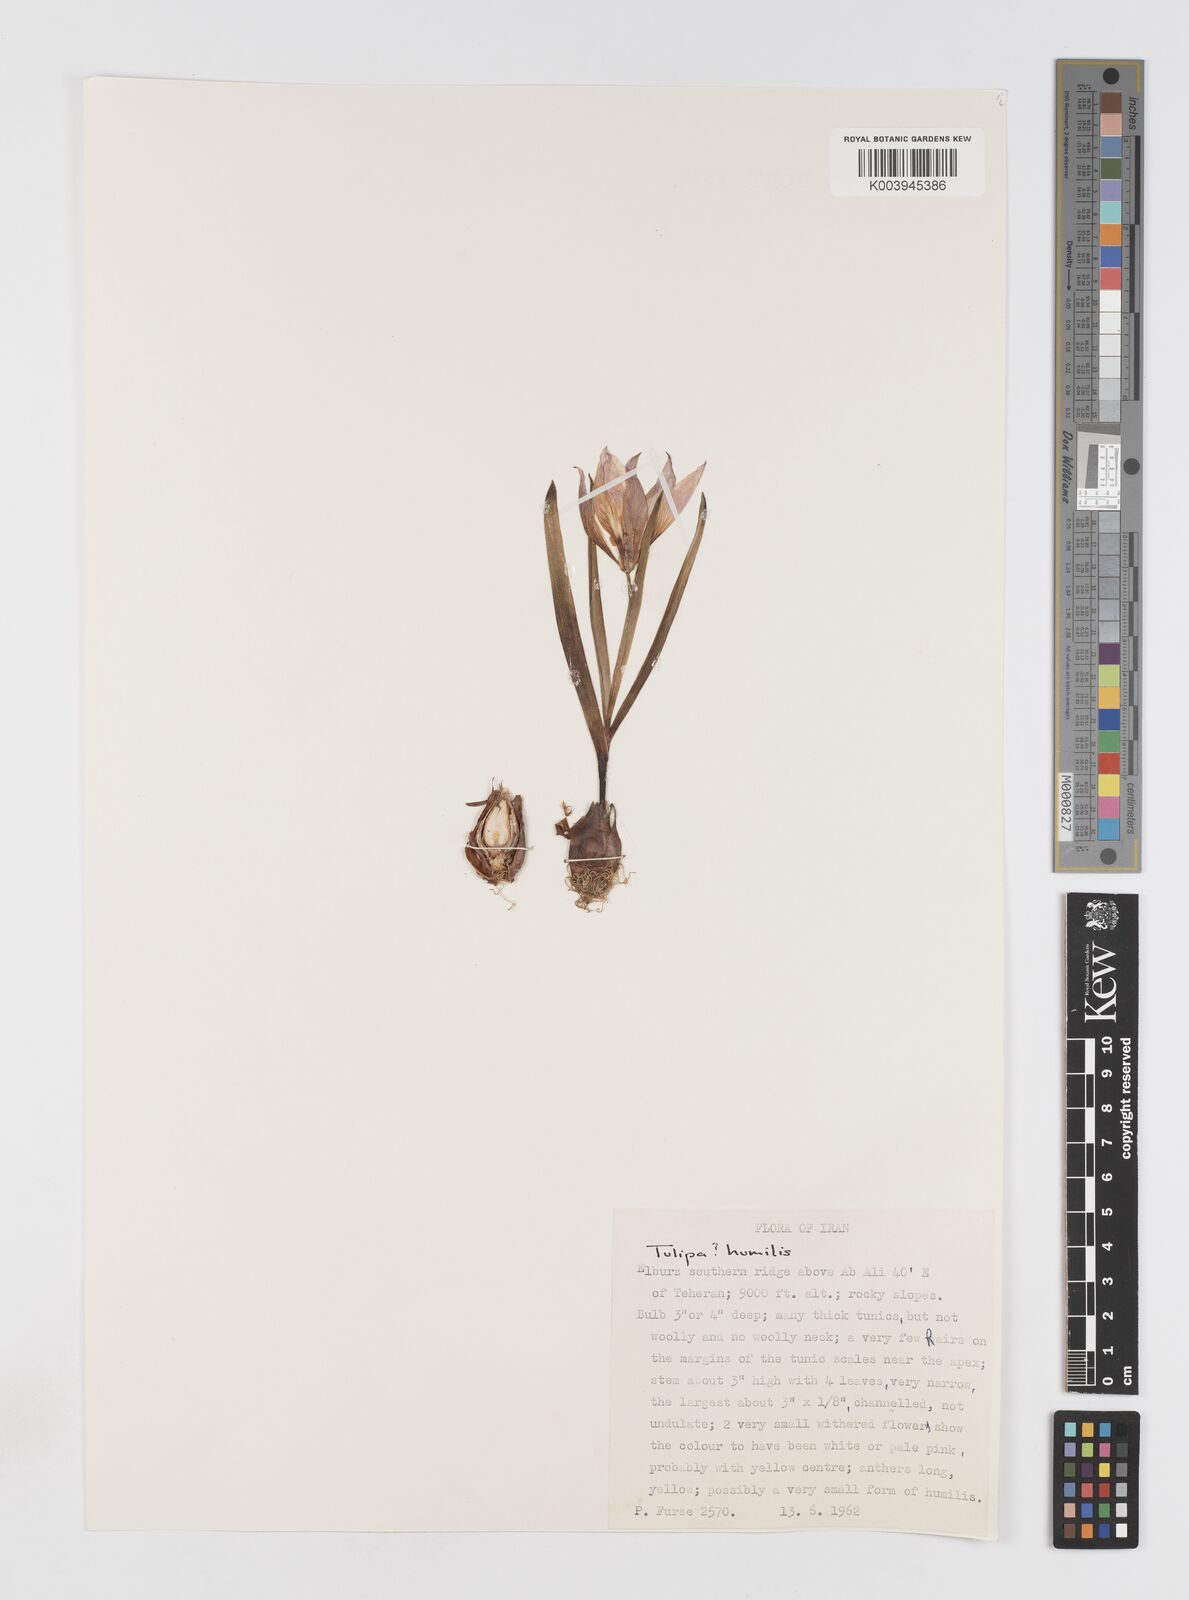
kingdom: Plantae
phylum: Tracheophyta
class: Liliopsida
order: Liliales
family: Liliaceae
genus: Tulipa
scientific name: Tulipa humilis
